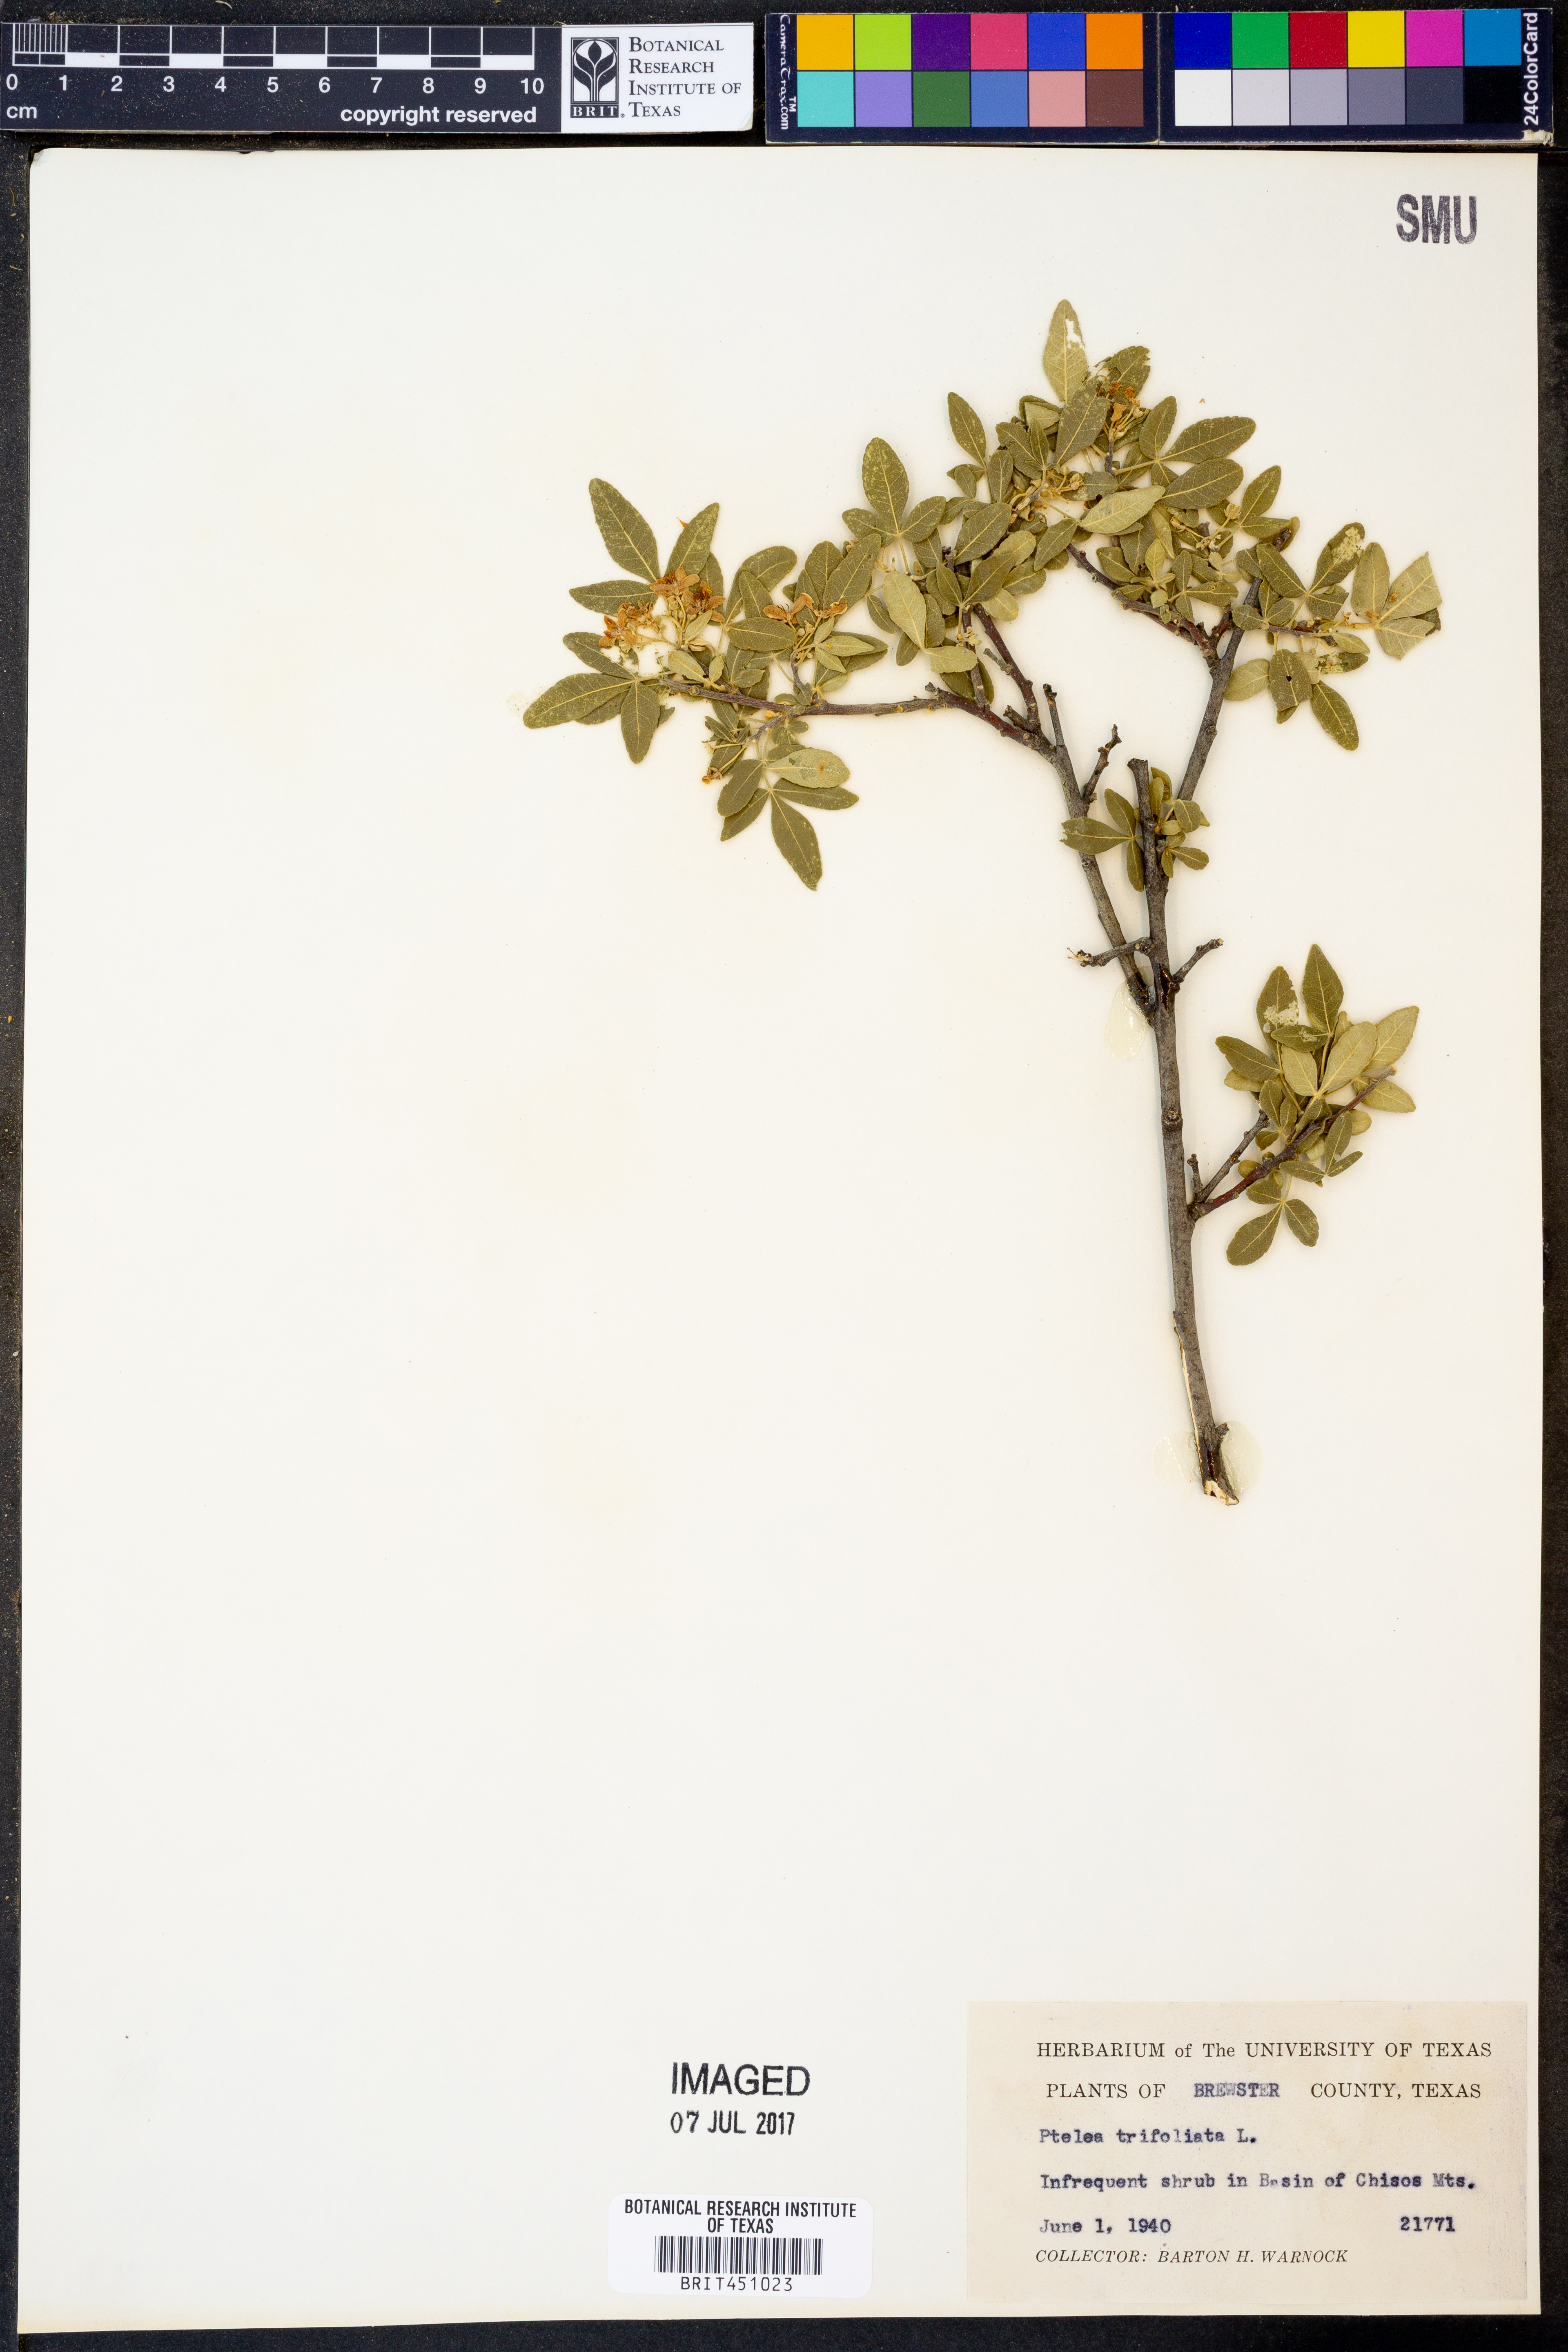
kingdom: Plantae
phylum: Tracheophyta
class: Magnoliopsida
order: Sapindales
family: Rutaceae
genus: Ptelea
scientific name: Ptelea trifoliata
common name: Common hop-tree
